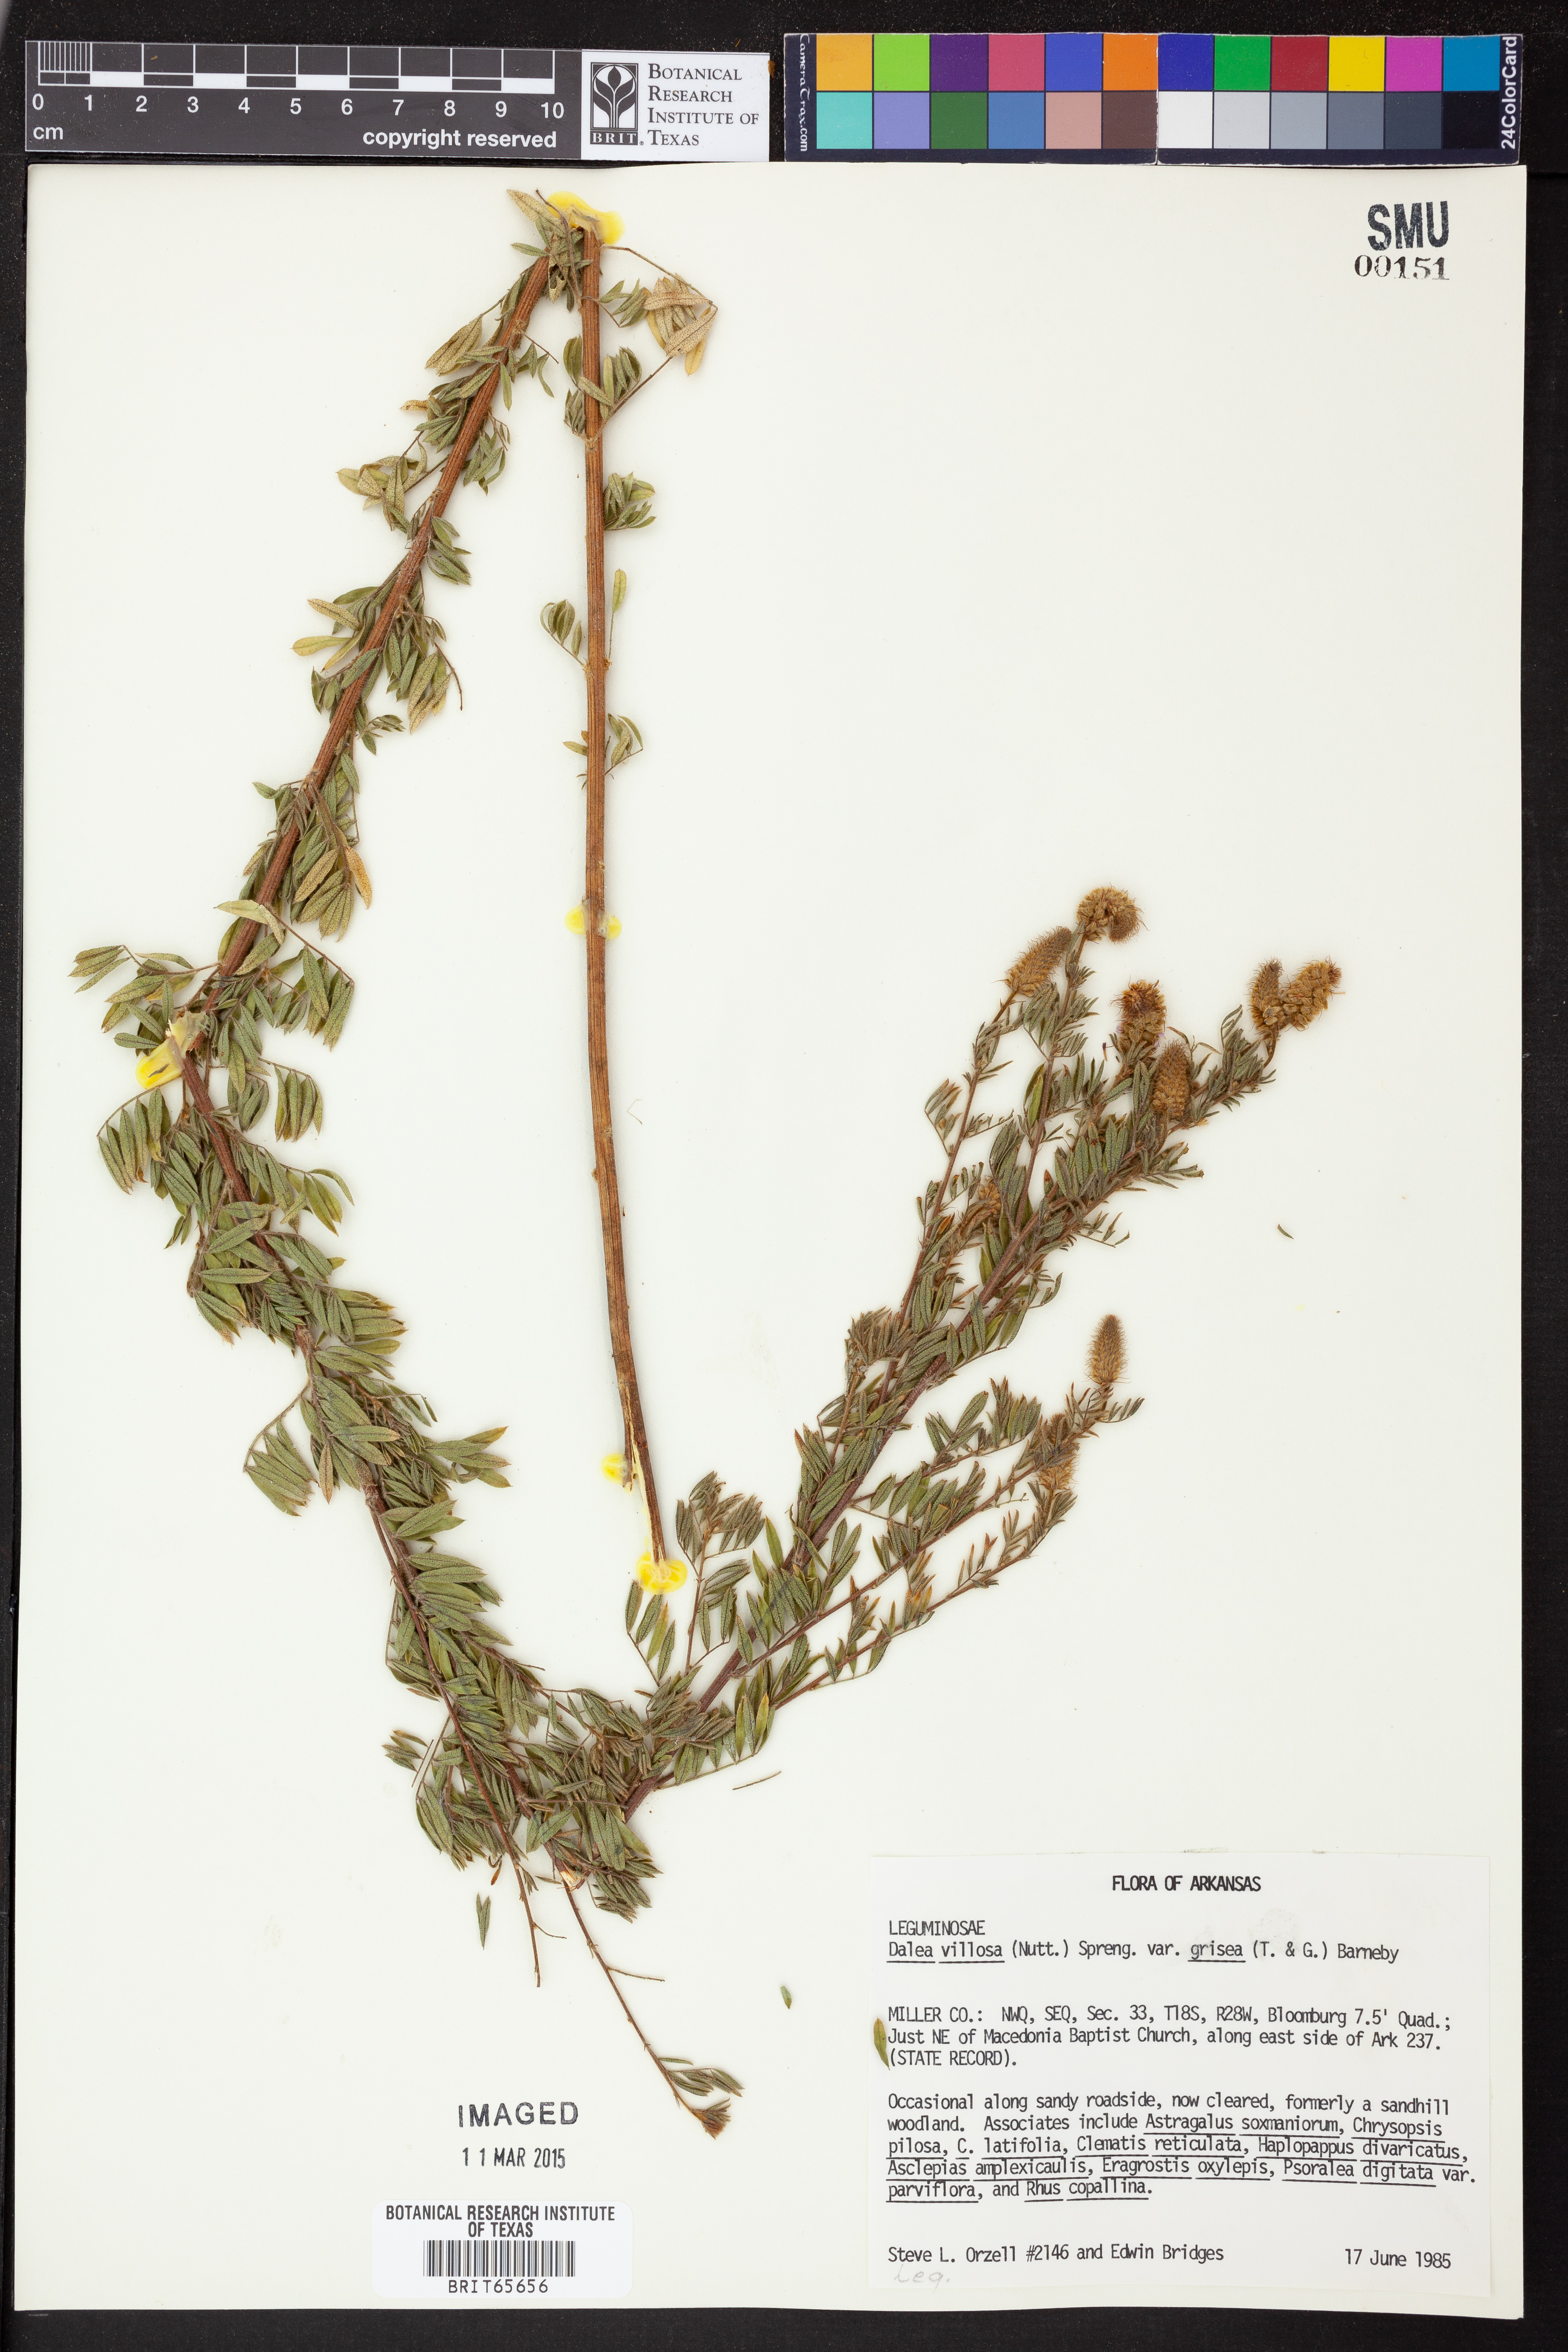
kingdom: Plantae
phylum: Tracheophyta
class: Magnoliopsida
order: Fabales
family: Fabaceae
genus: Dalea
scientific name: Dalea villosa
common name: Silky prairie-clover
